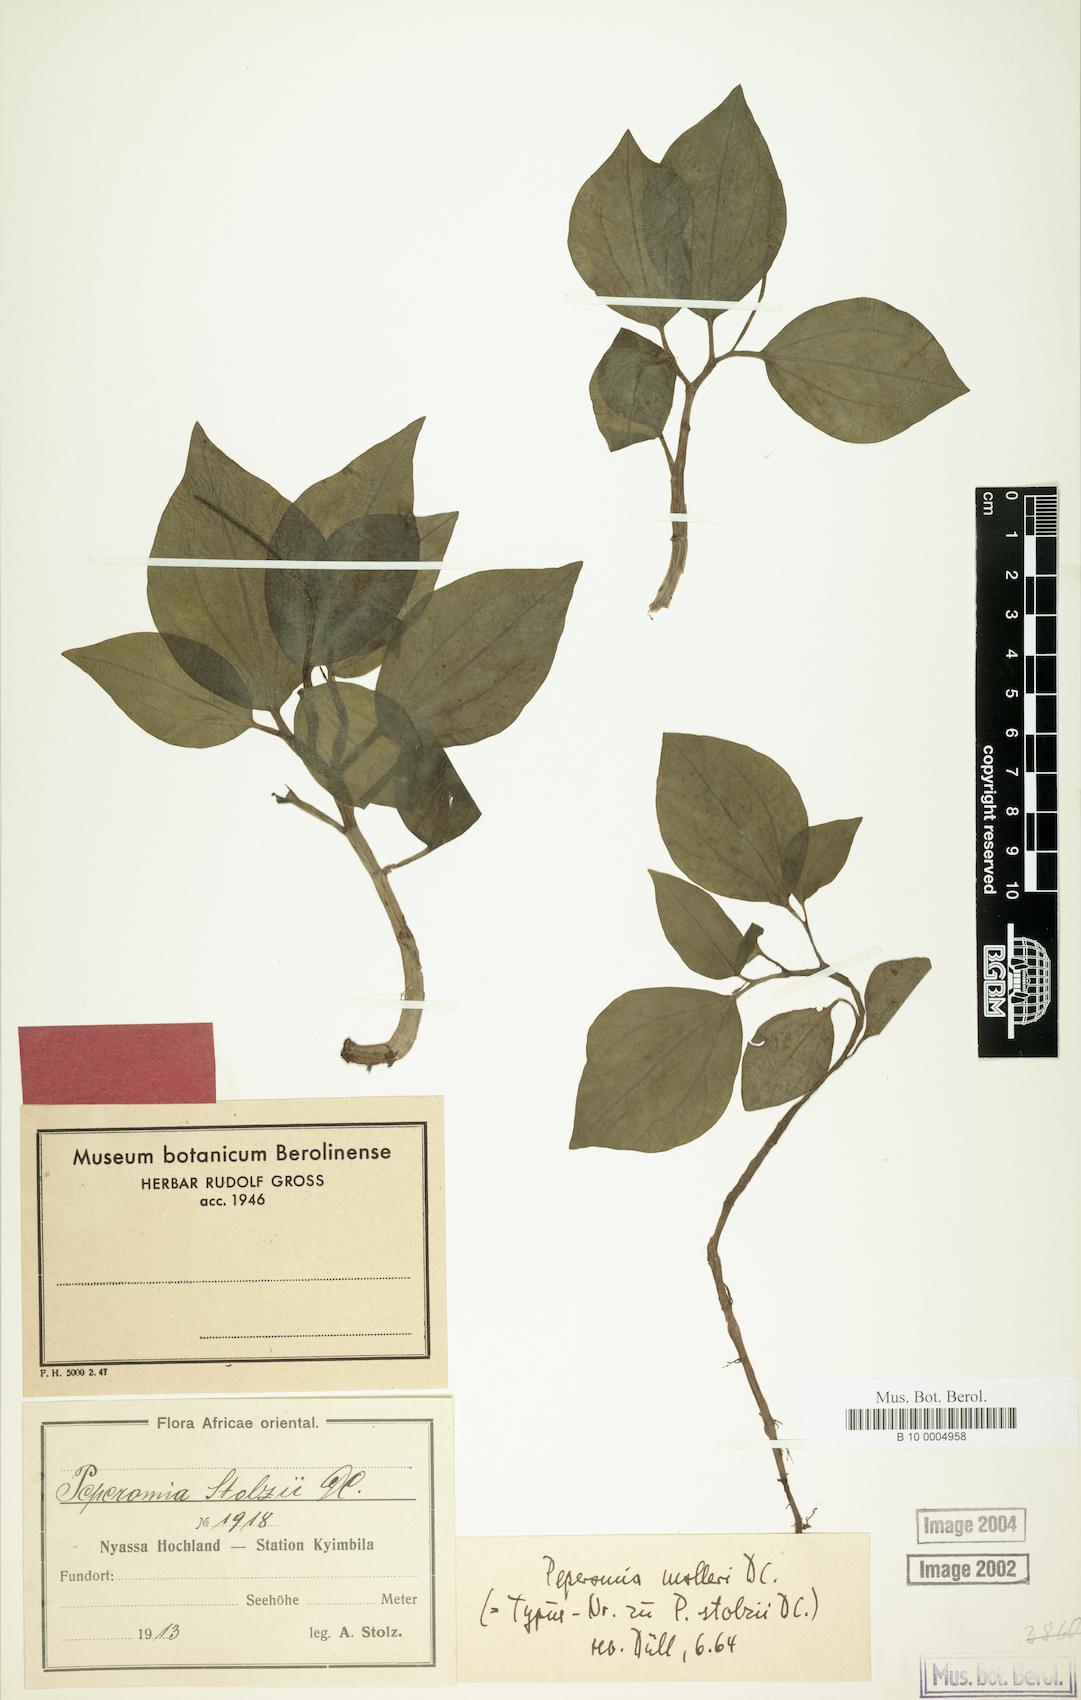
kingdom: Plantae
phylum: Tracheophyta
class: Magnoliopsida
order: Piperales
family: Piperaceae
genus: Peperomia
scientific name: Peperomia molleri
